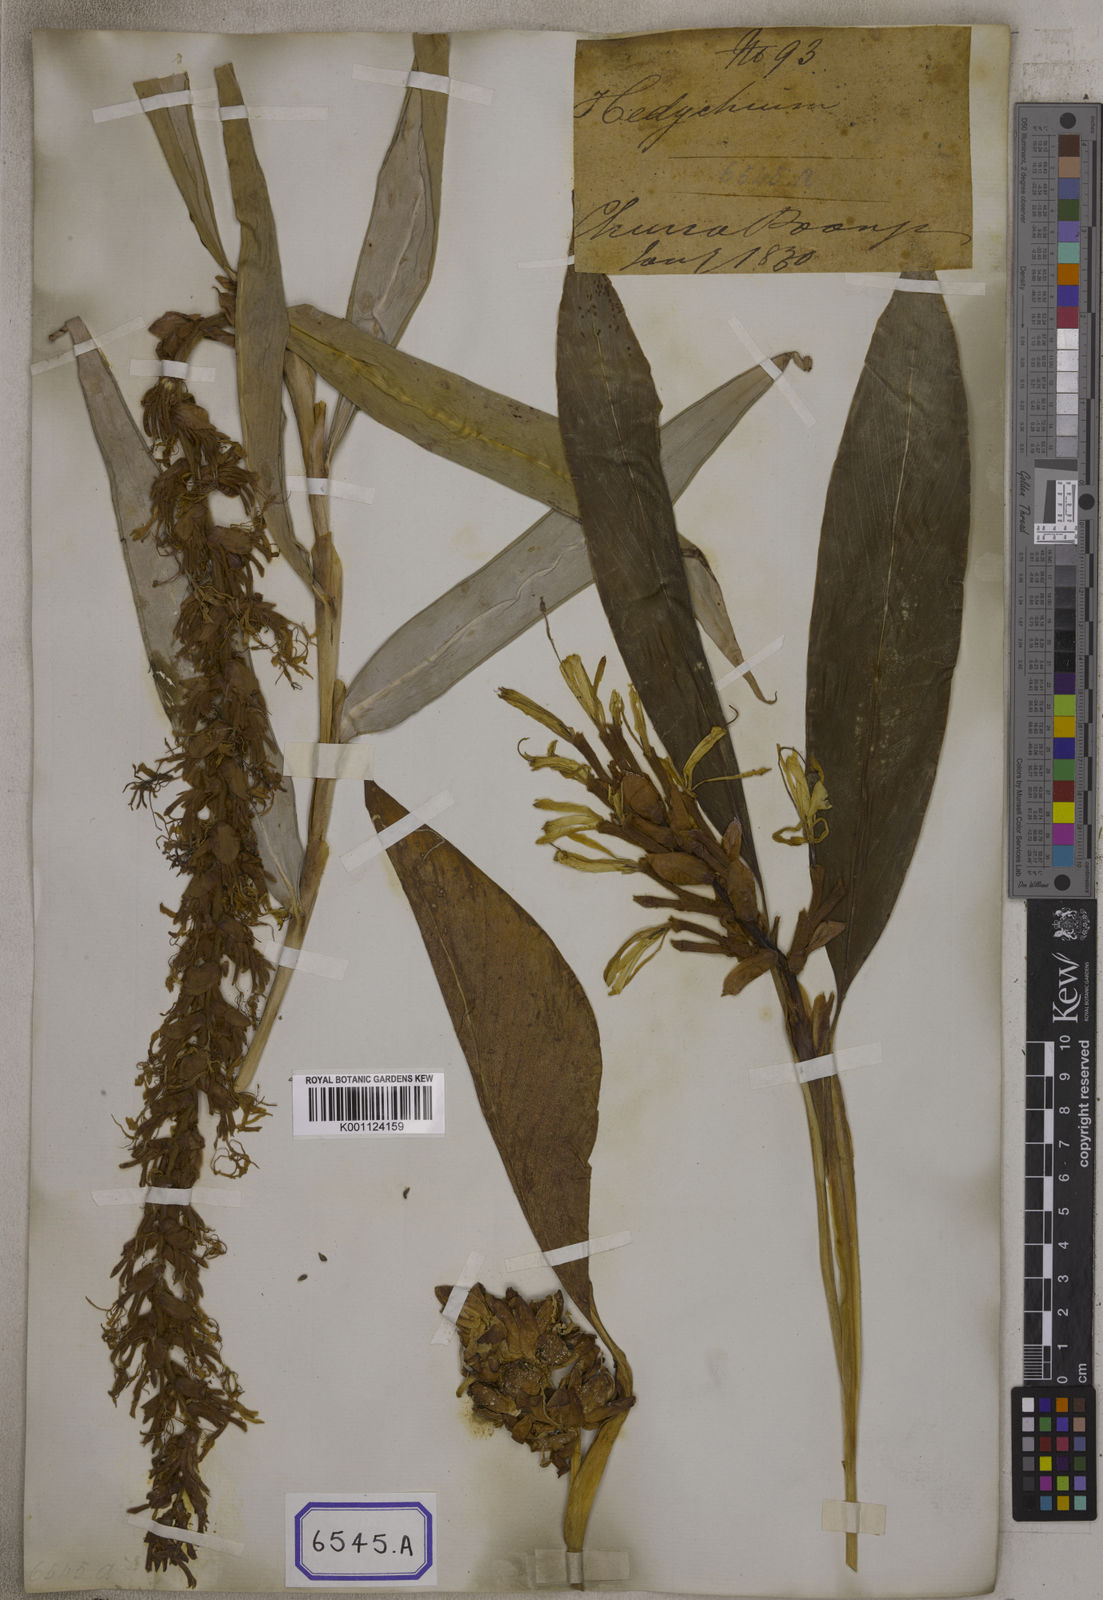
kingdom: Plantae
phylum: Tracheophyta
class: Liliopsida
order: Zingiberales
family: Zingiberaceae
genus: Hedychium
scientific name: Hedychium villosum
